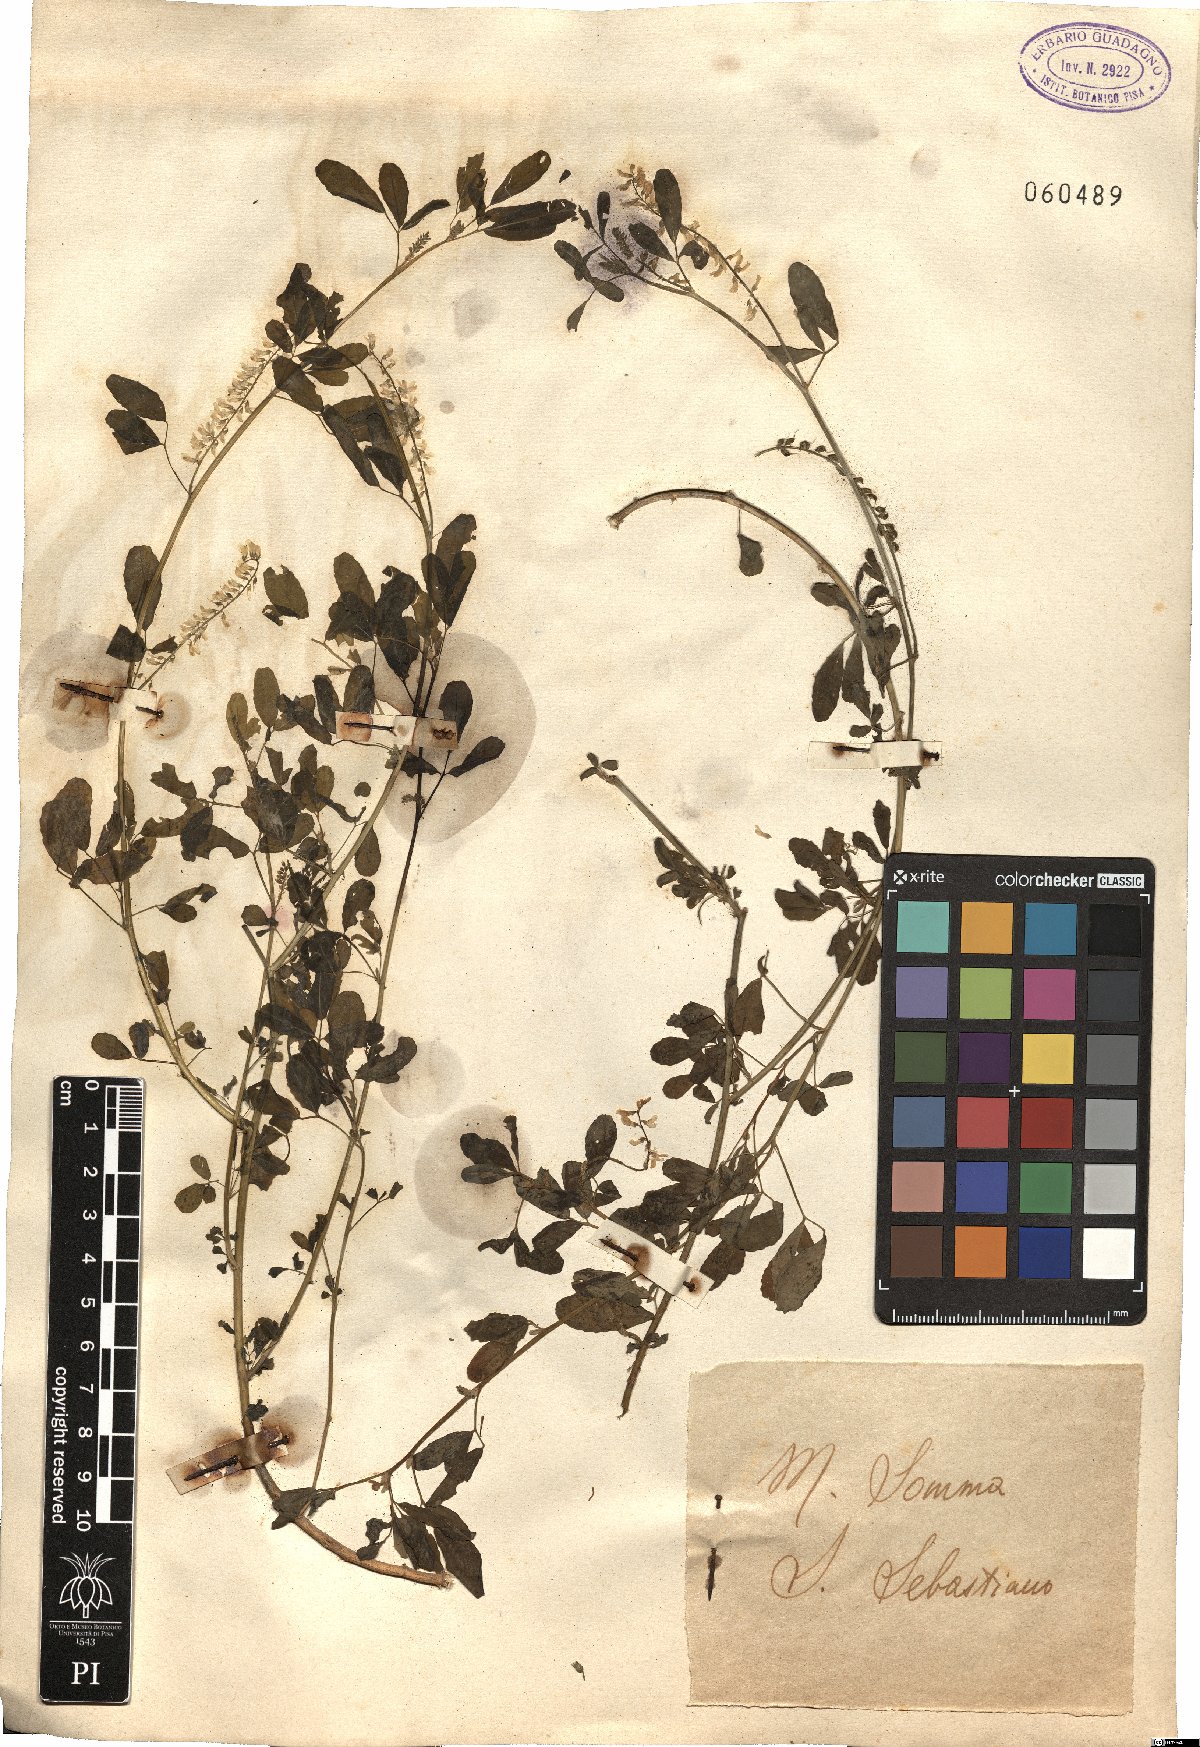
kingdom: Plantae
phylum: Tracheophyta
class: Magnoliopsida
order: Fabales
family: Fabaceae
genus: Trigonella
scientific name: Trigonella
